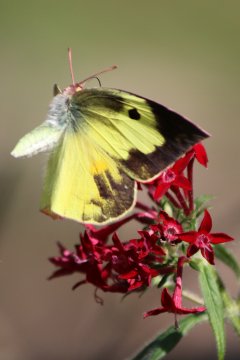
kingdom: Animalia
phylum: Arthropoda
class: Insecta
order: Lepidoptera
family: Pieridae
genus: Zerene
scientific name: Zerene cesonia
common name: Southern Dogface
